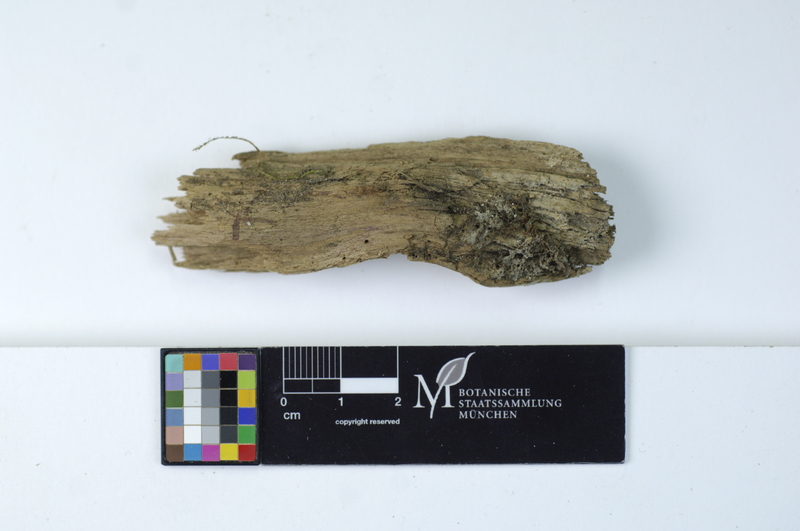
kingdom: Fungi
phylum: Basidiomycota
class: Agaricomycetes
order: Cantharellales
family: Botryobasidiaceae
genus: Botryobasidium
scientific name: Botryobasidium vagum
